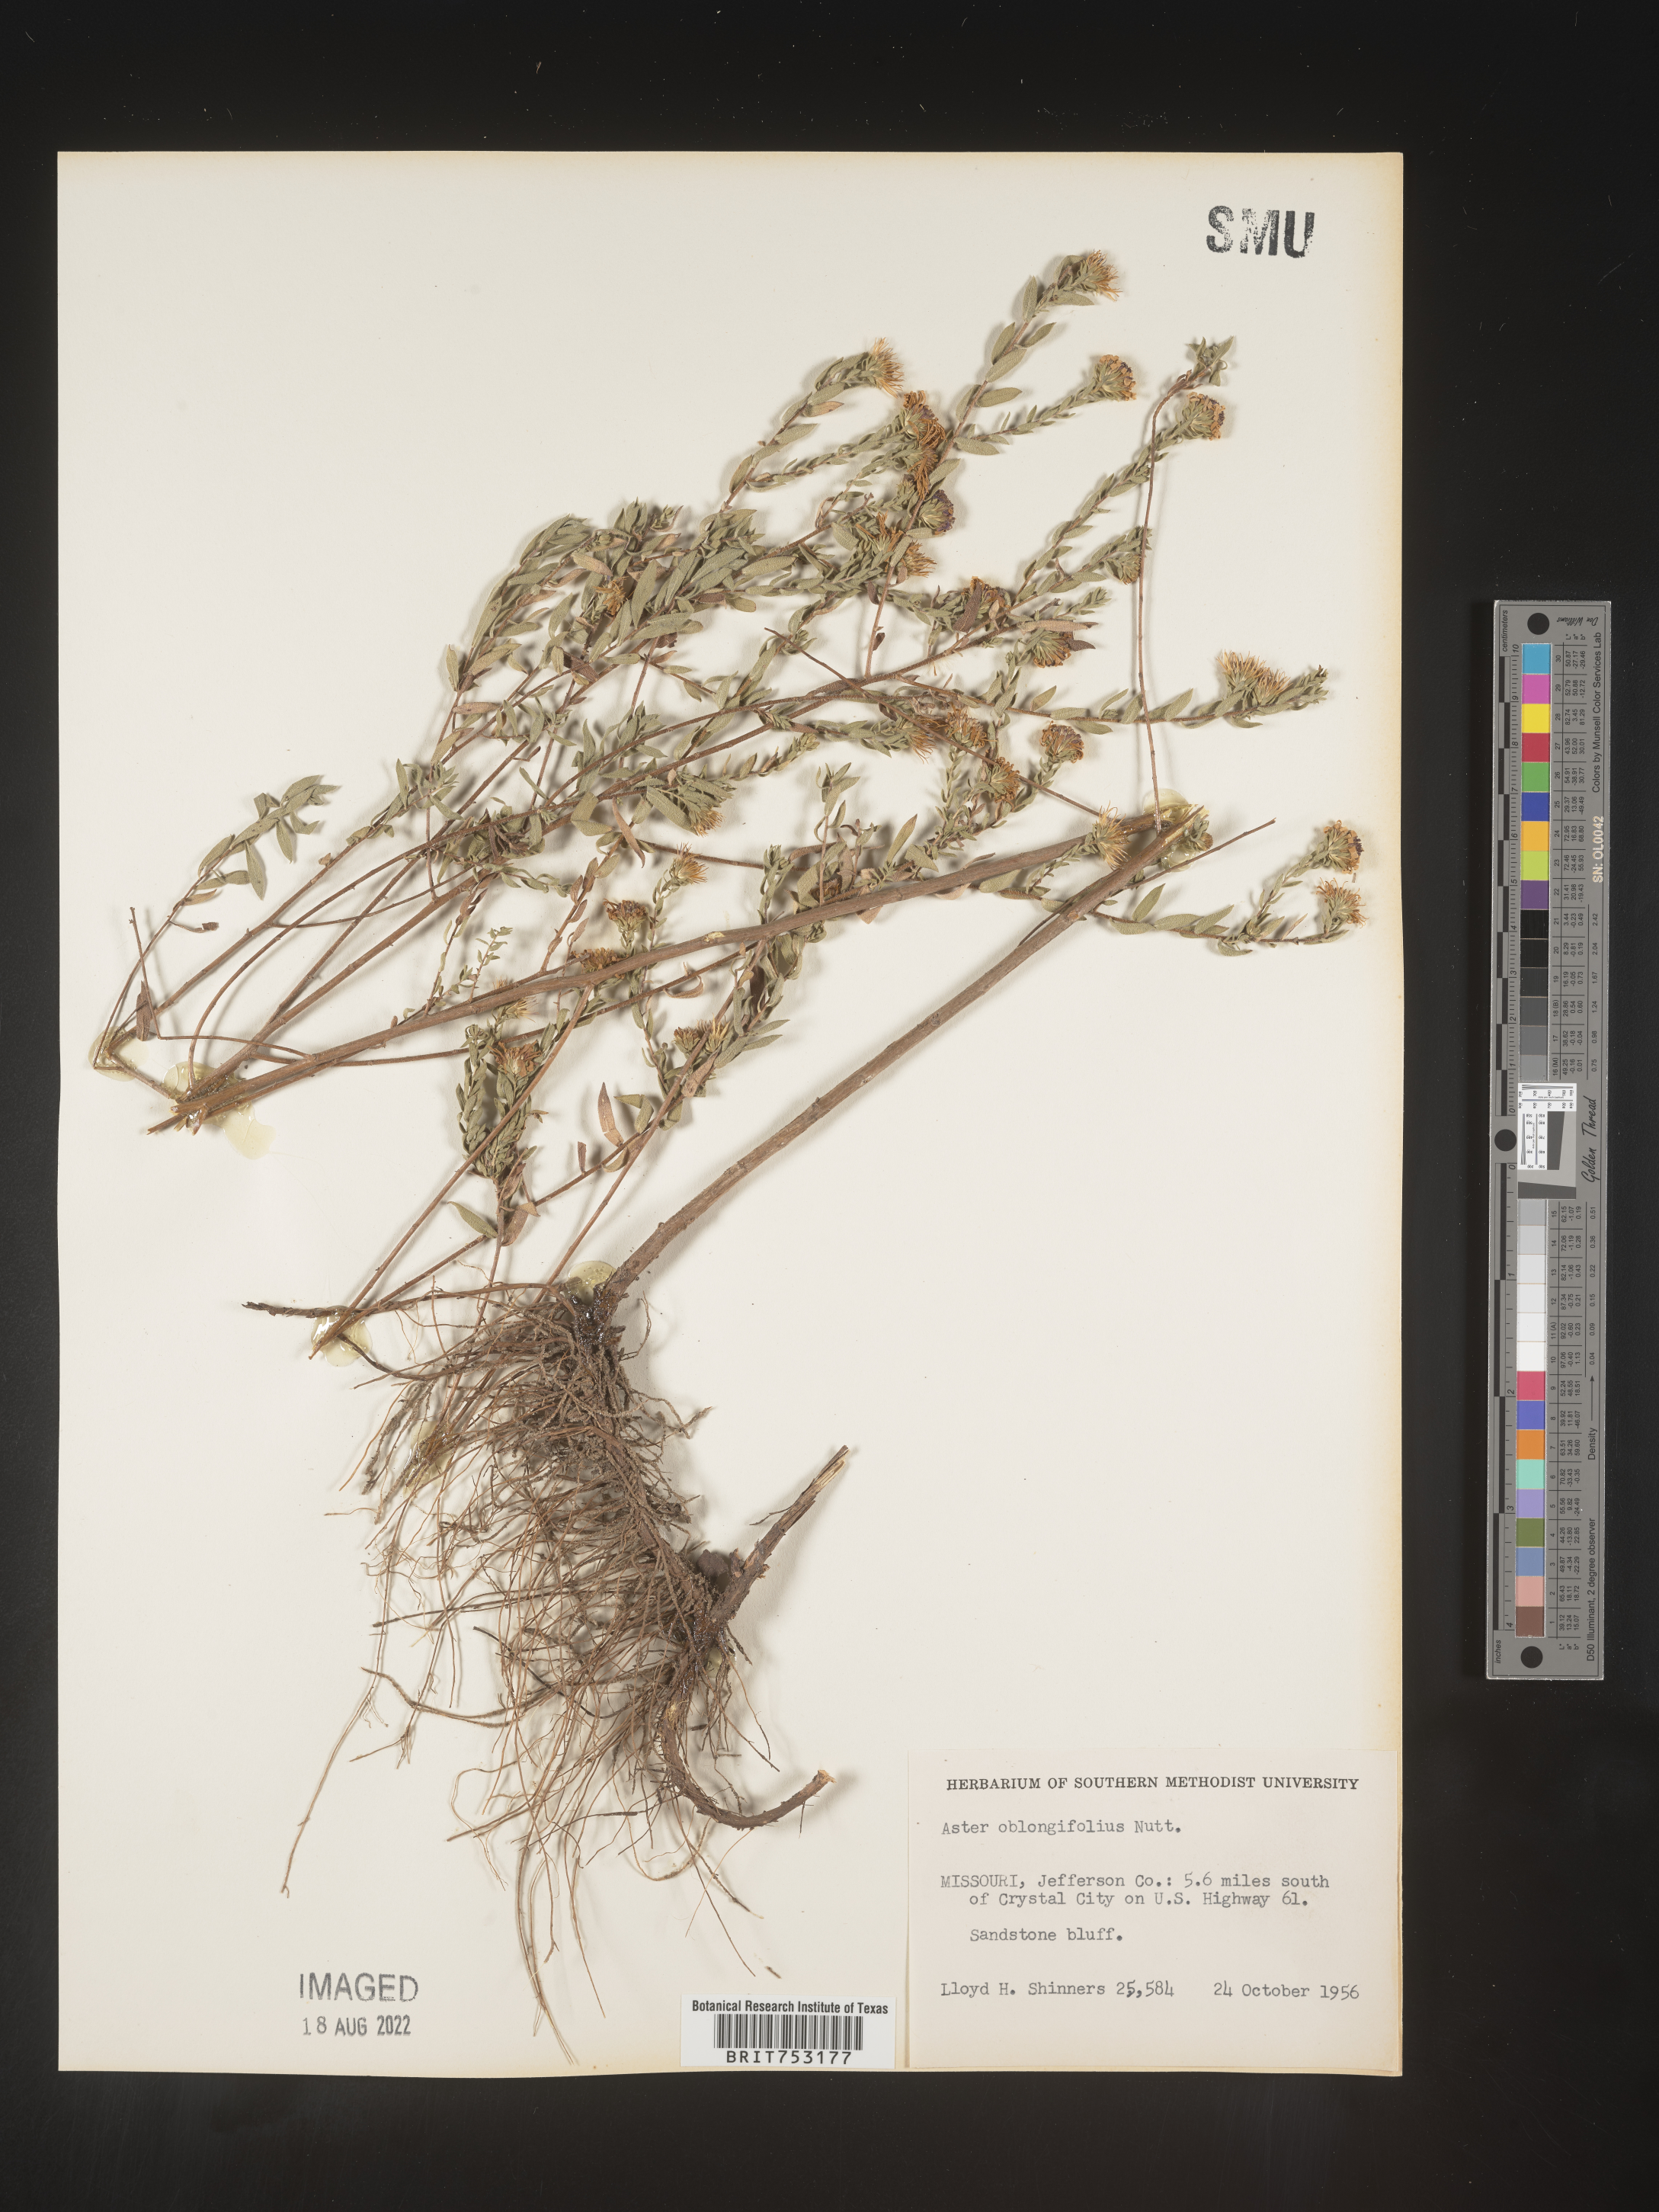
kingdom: Plantae
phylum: Tracheophyta
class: Magnoliopsida
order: Asterales
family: Asteraceae
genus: Symphyotrichum
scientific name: Symphyotrichum oblongifolium
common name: Aromatic aster
